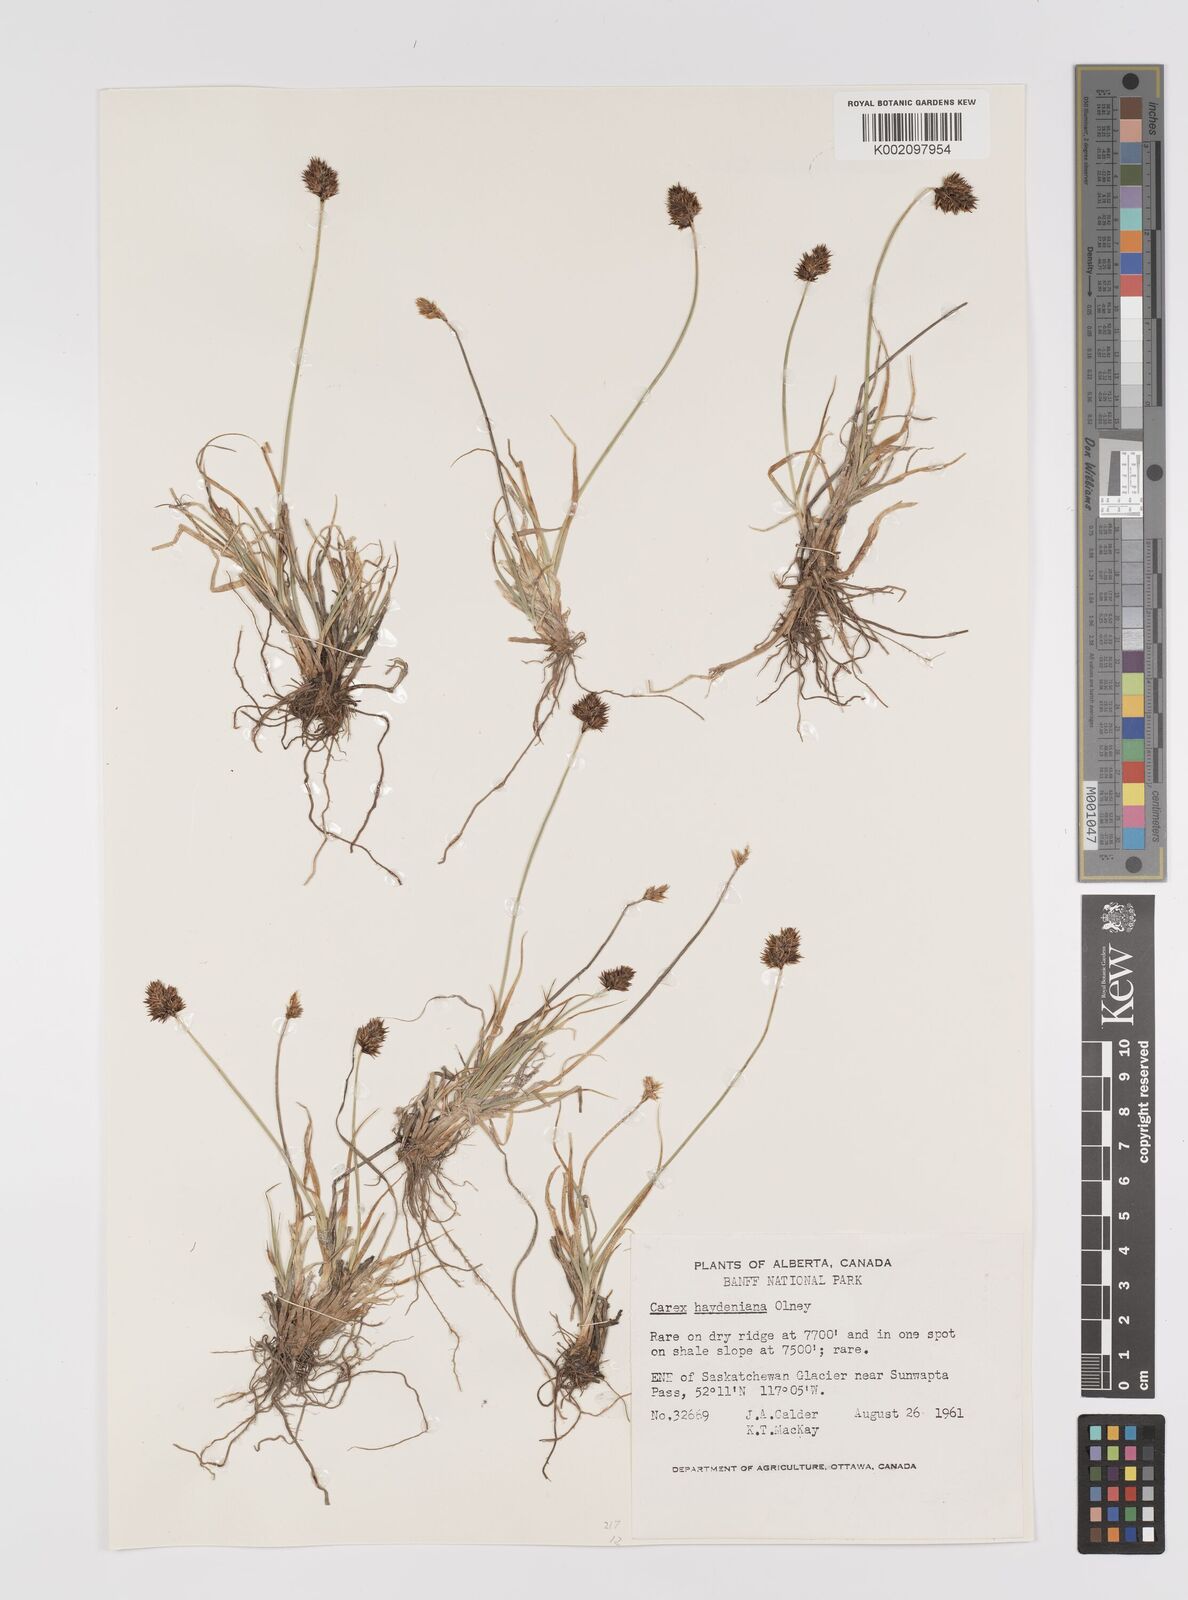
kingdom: Plantae
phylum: Tracheophyta
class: Liliopsida
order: Poales
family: Cyperaceae
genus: Carex
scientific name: Carex perglobosa
